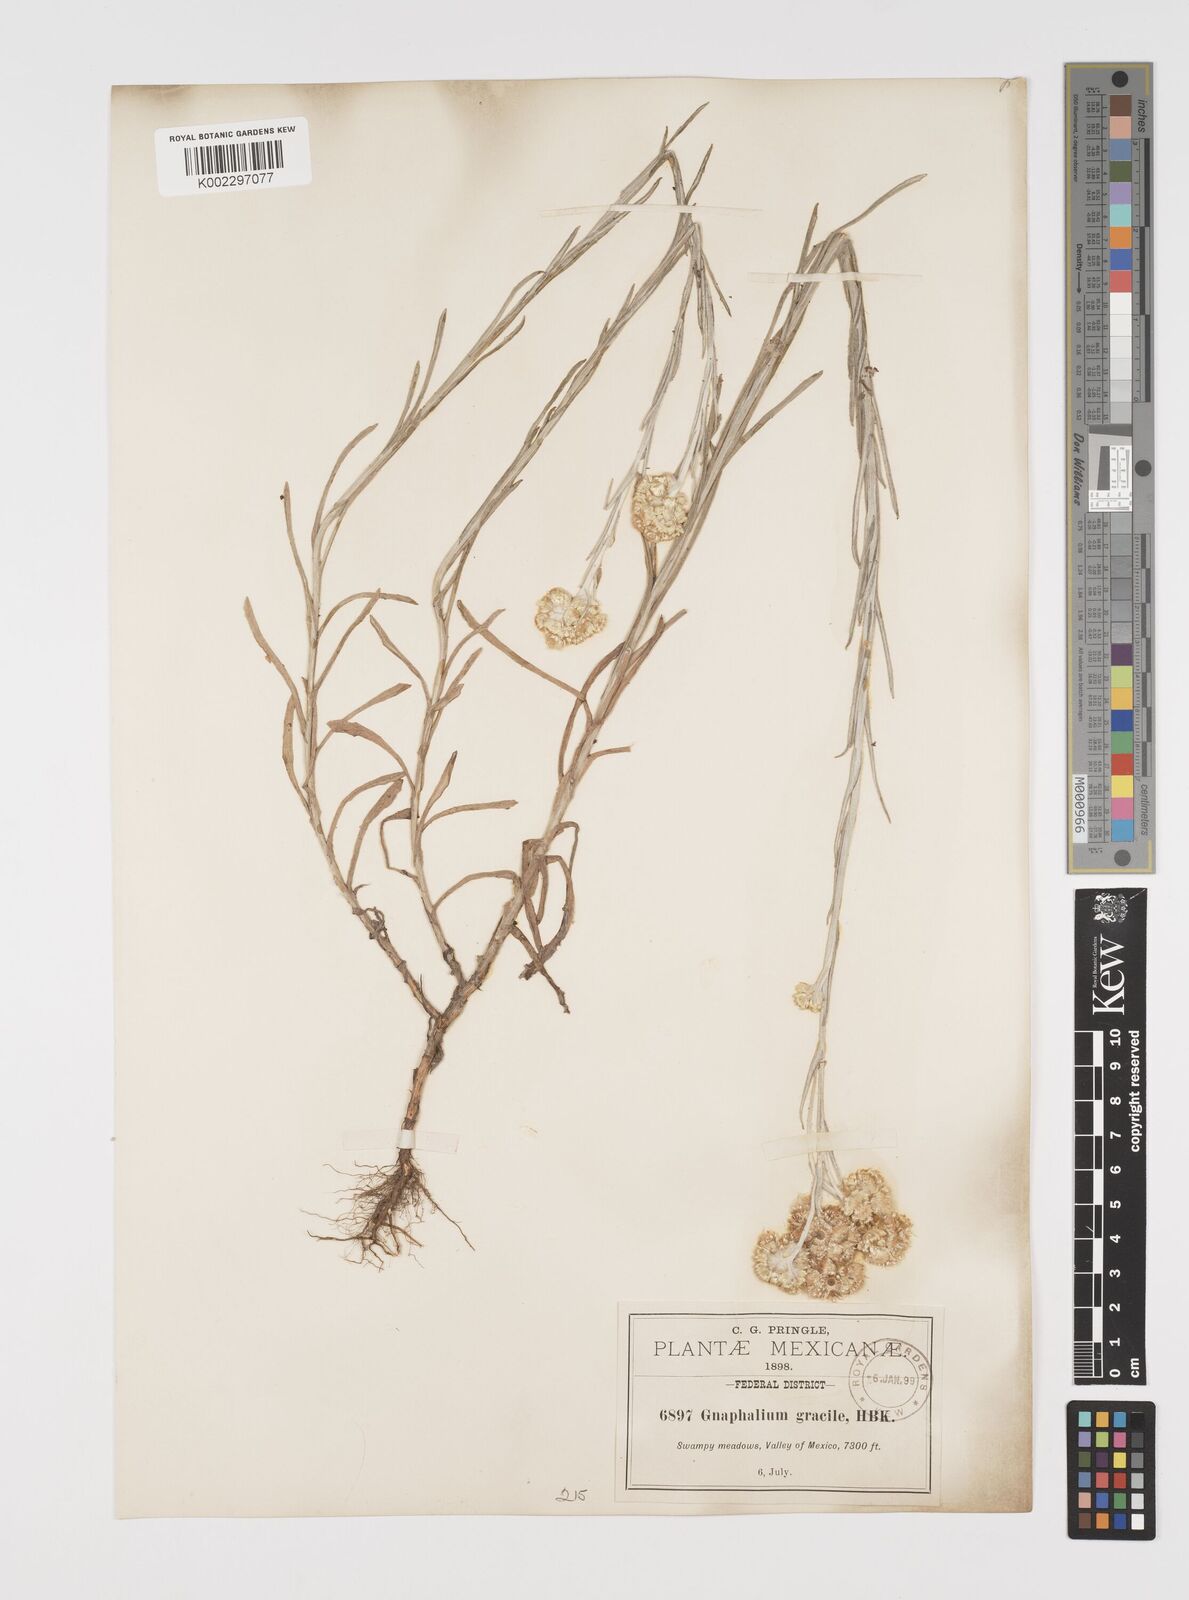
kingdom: Plantae
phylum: Tracheophyta
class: Magnoliopsida
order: Asterales
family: Asteraceae
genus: Pseudognaphalium
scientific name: Pseudognaphalium
